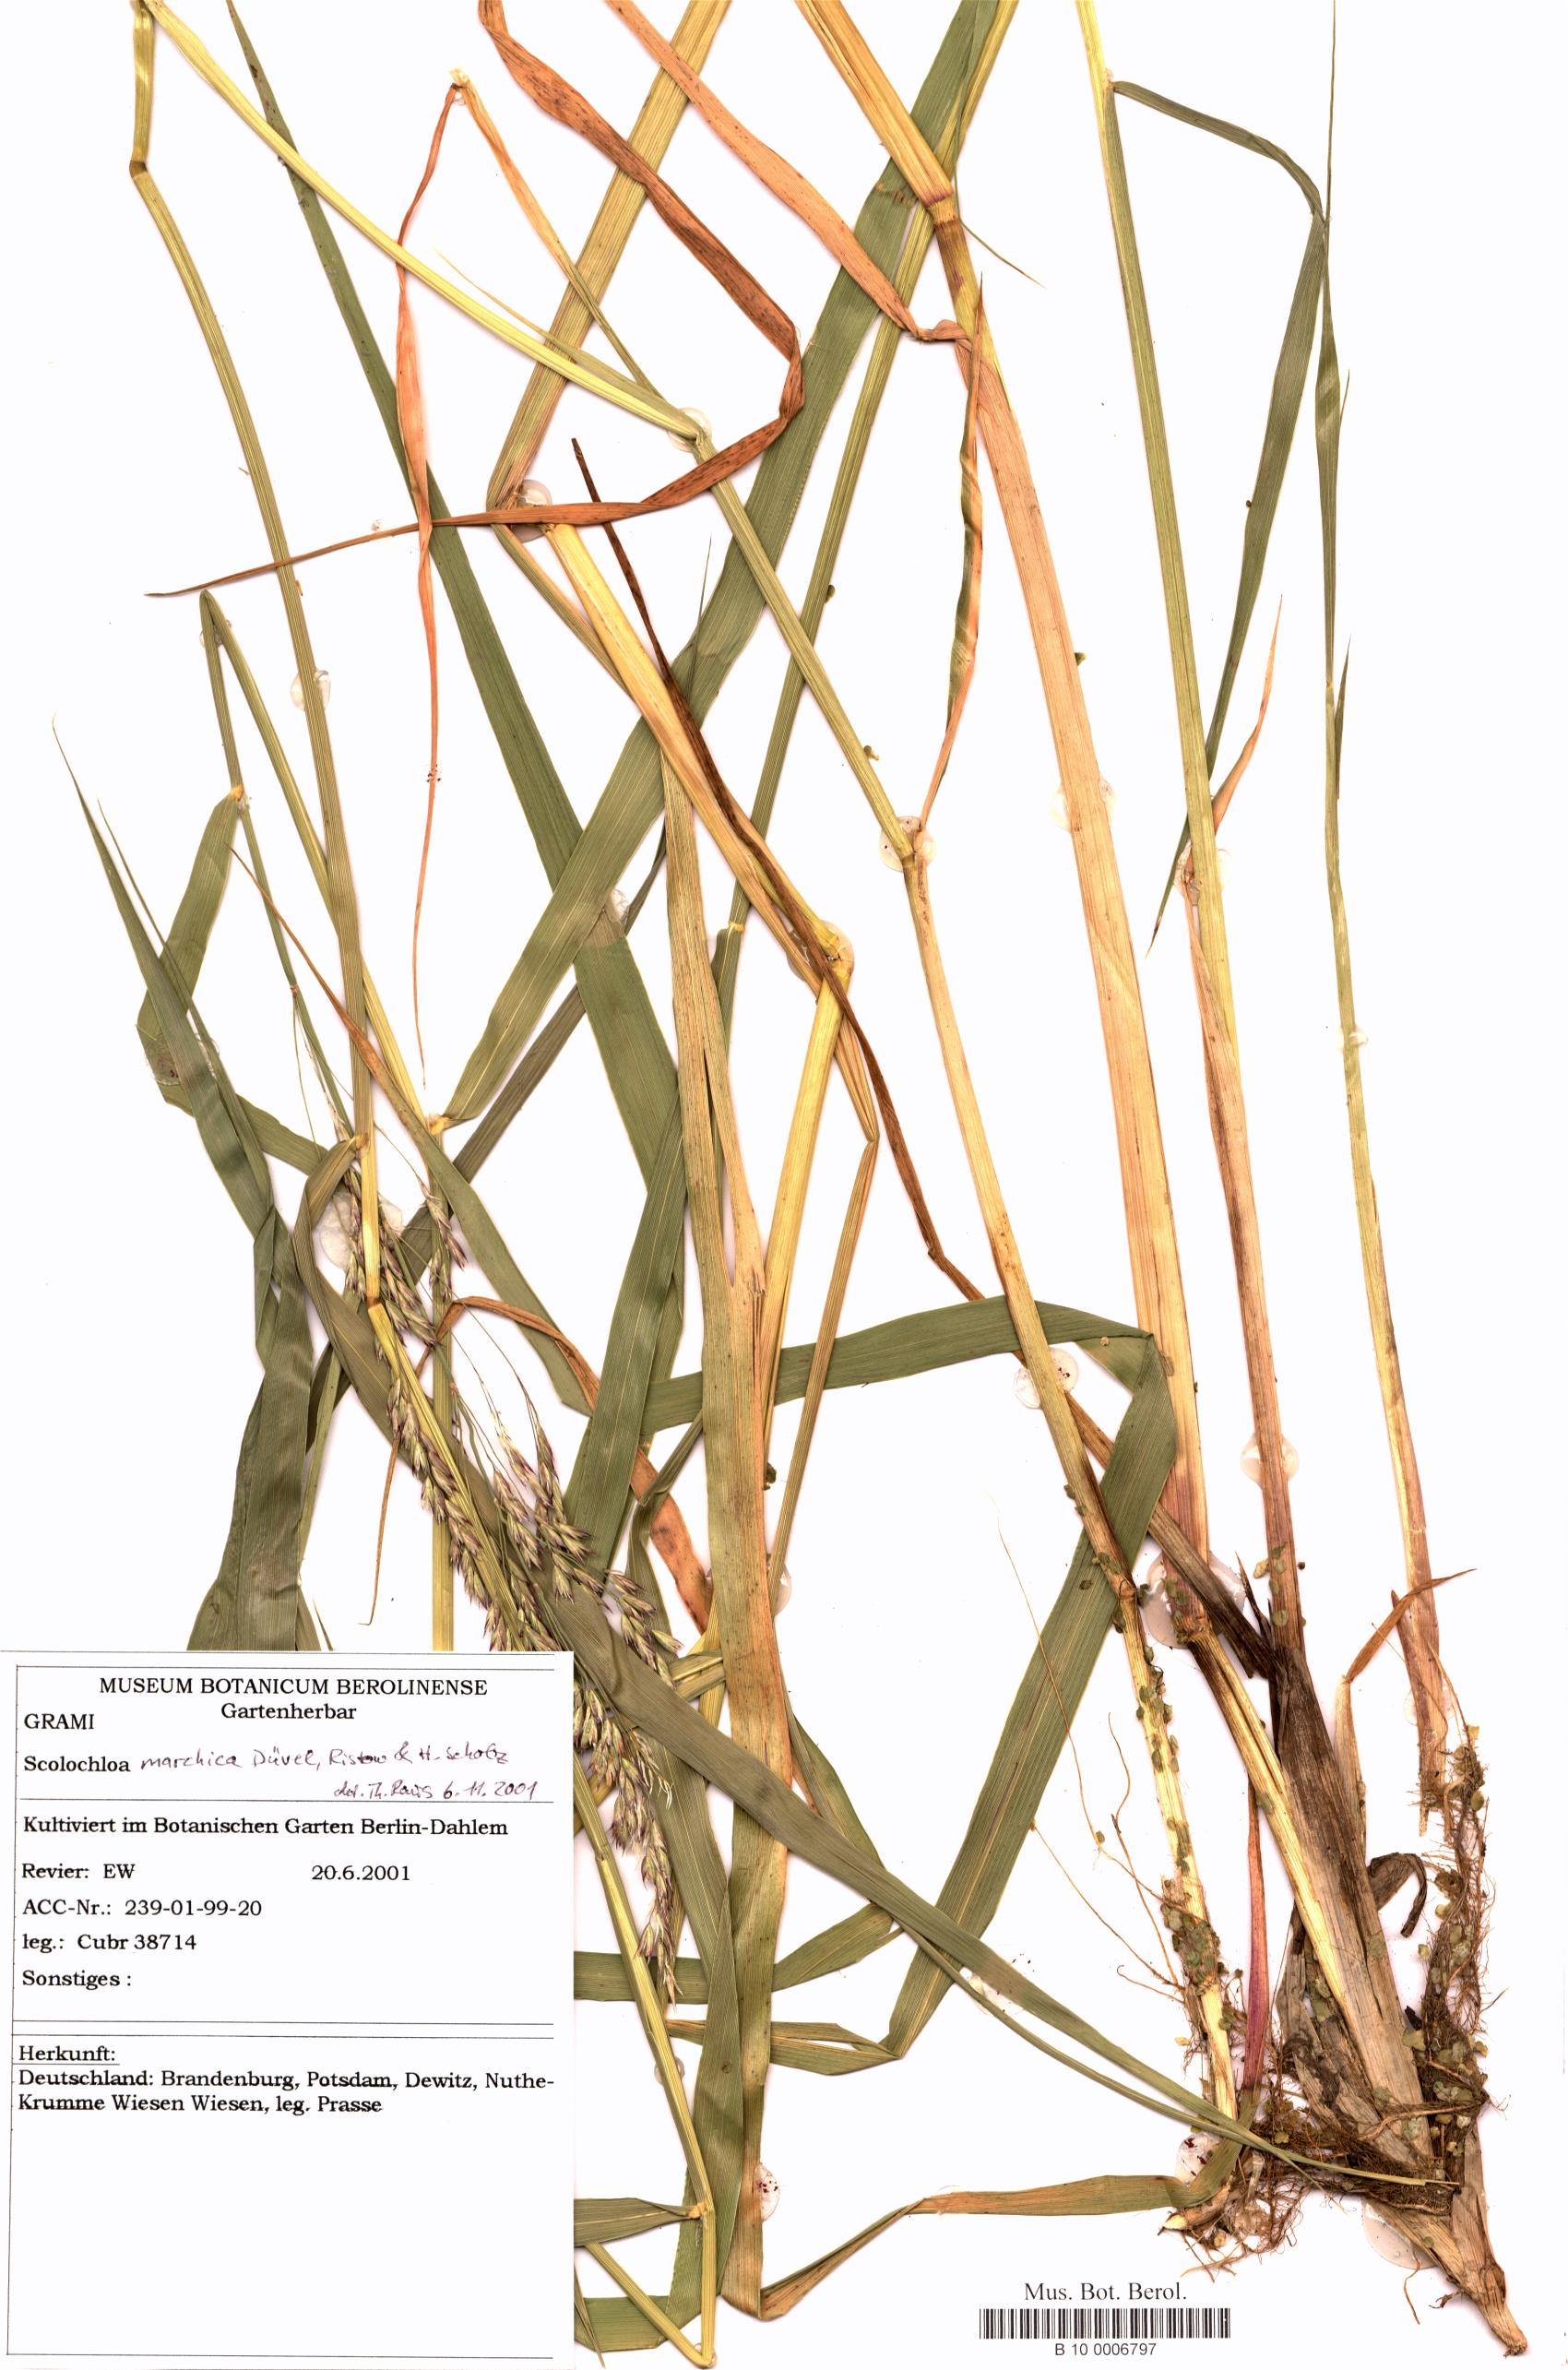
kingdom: Plantae
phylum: Tracheophyta
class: Liliopsida
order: Poales
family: Poaceae
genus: Scolochloa
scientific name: Scolochloa festucacea
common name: Common rivergrass
